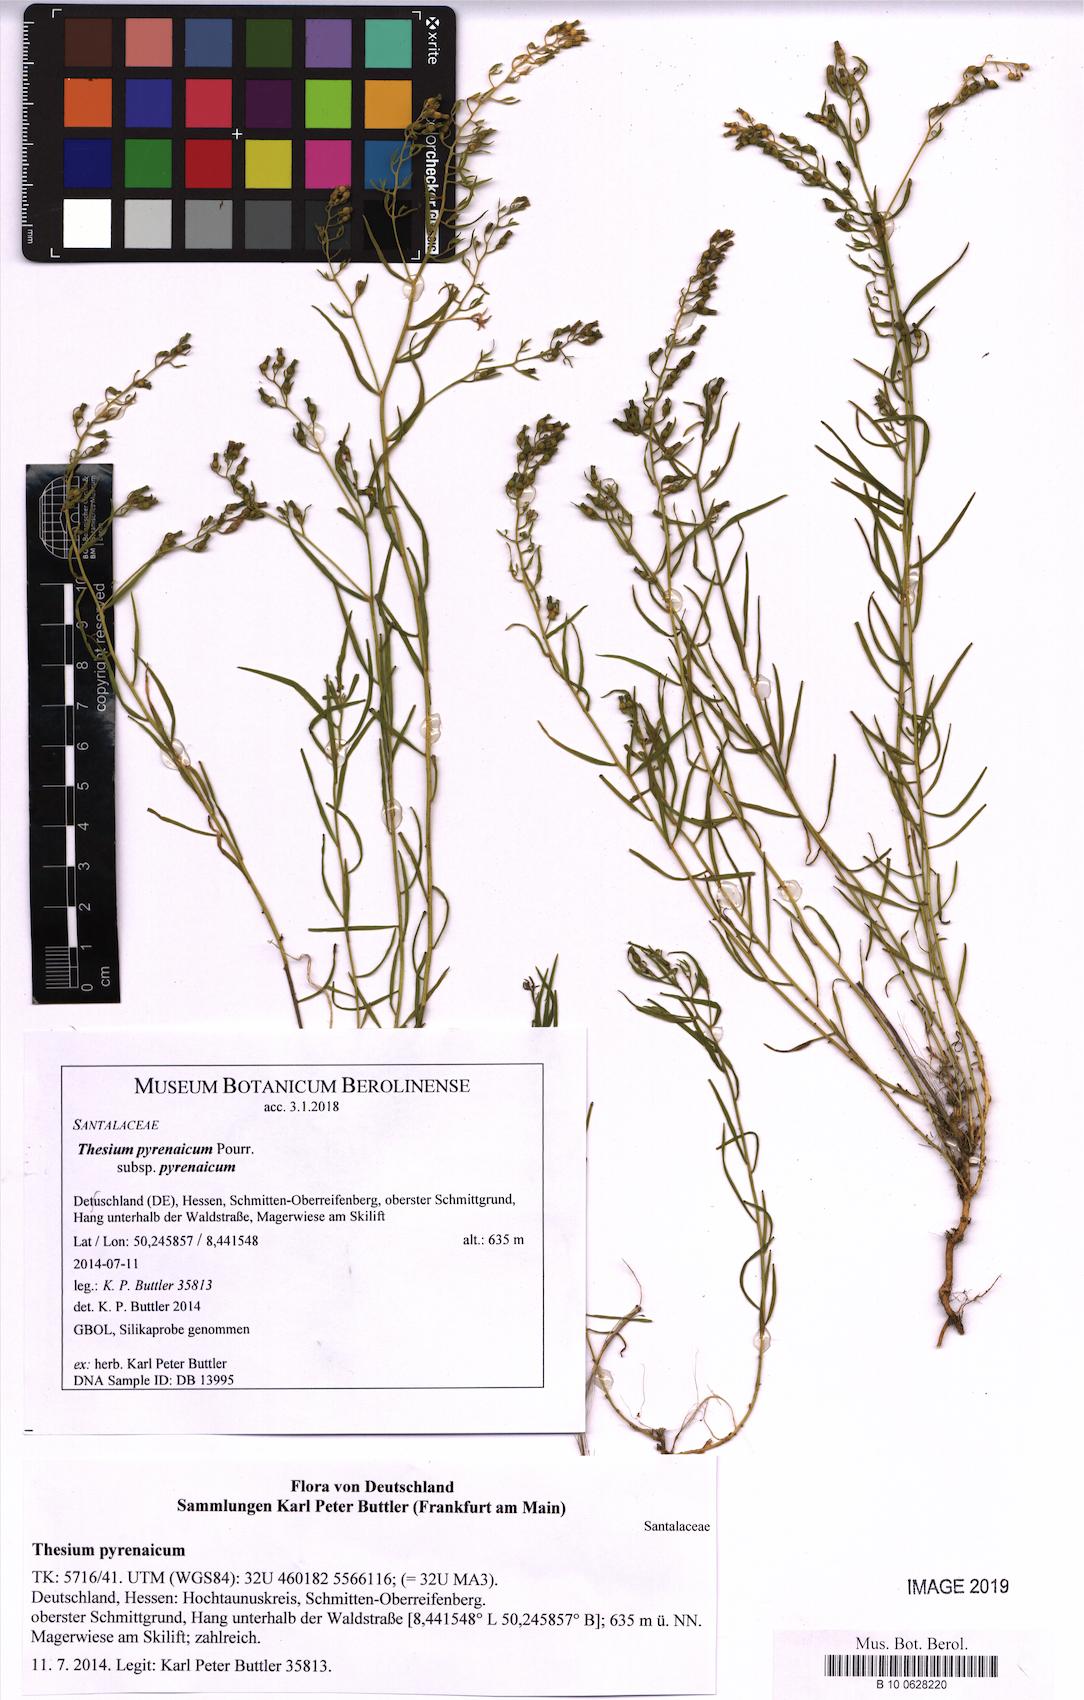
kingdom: Plantae
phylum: Tracheophyta
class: Magnoliopsida
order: Santalales
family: Thesiaceae
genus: Thesium
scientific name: Thesium pyrenaicum
